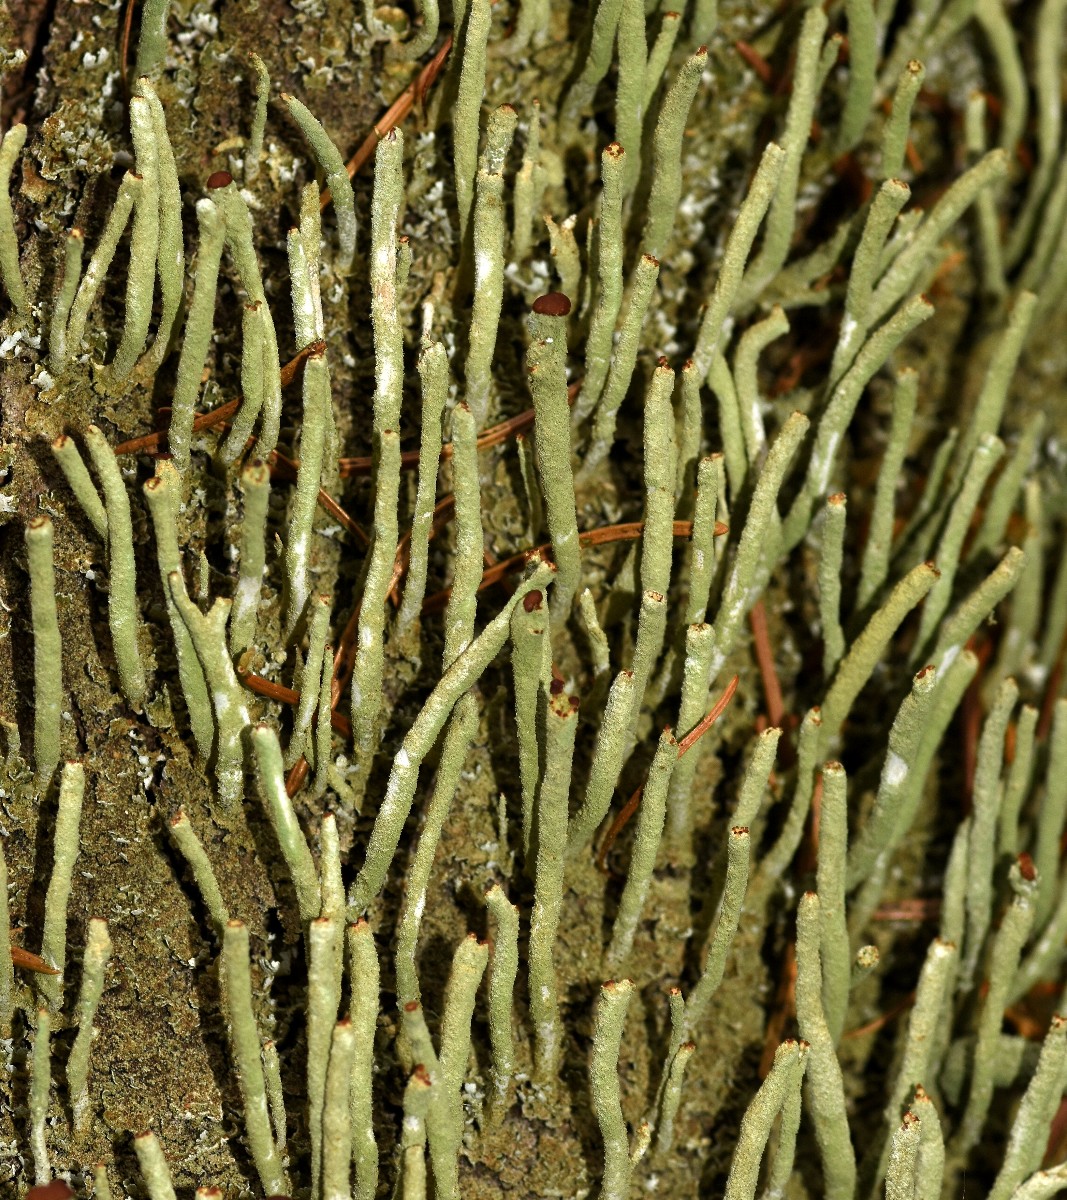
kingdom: Fungi
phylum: Ascomycota
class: Lecanoromycetes
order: Lecanorales
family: Cladoniaceae
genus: Cladonia
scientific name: Cladonia ochrochlora
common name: stød-bægerlav
